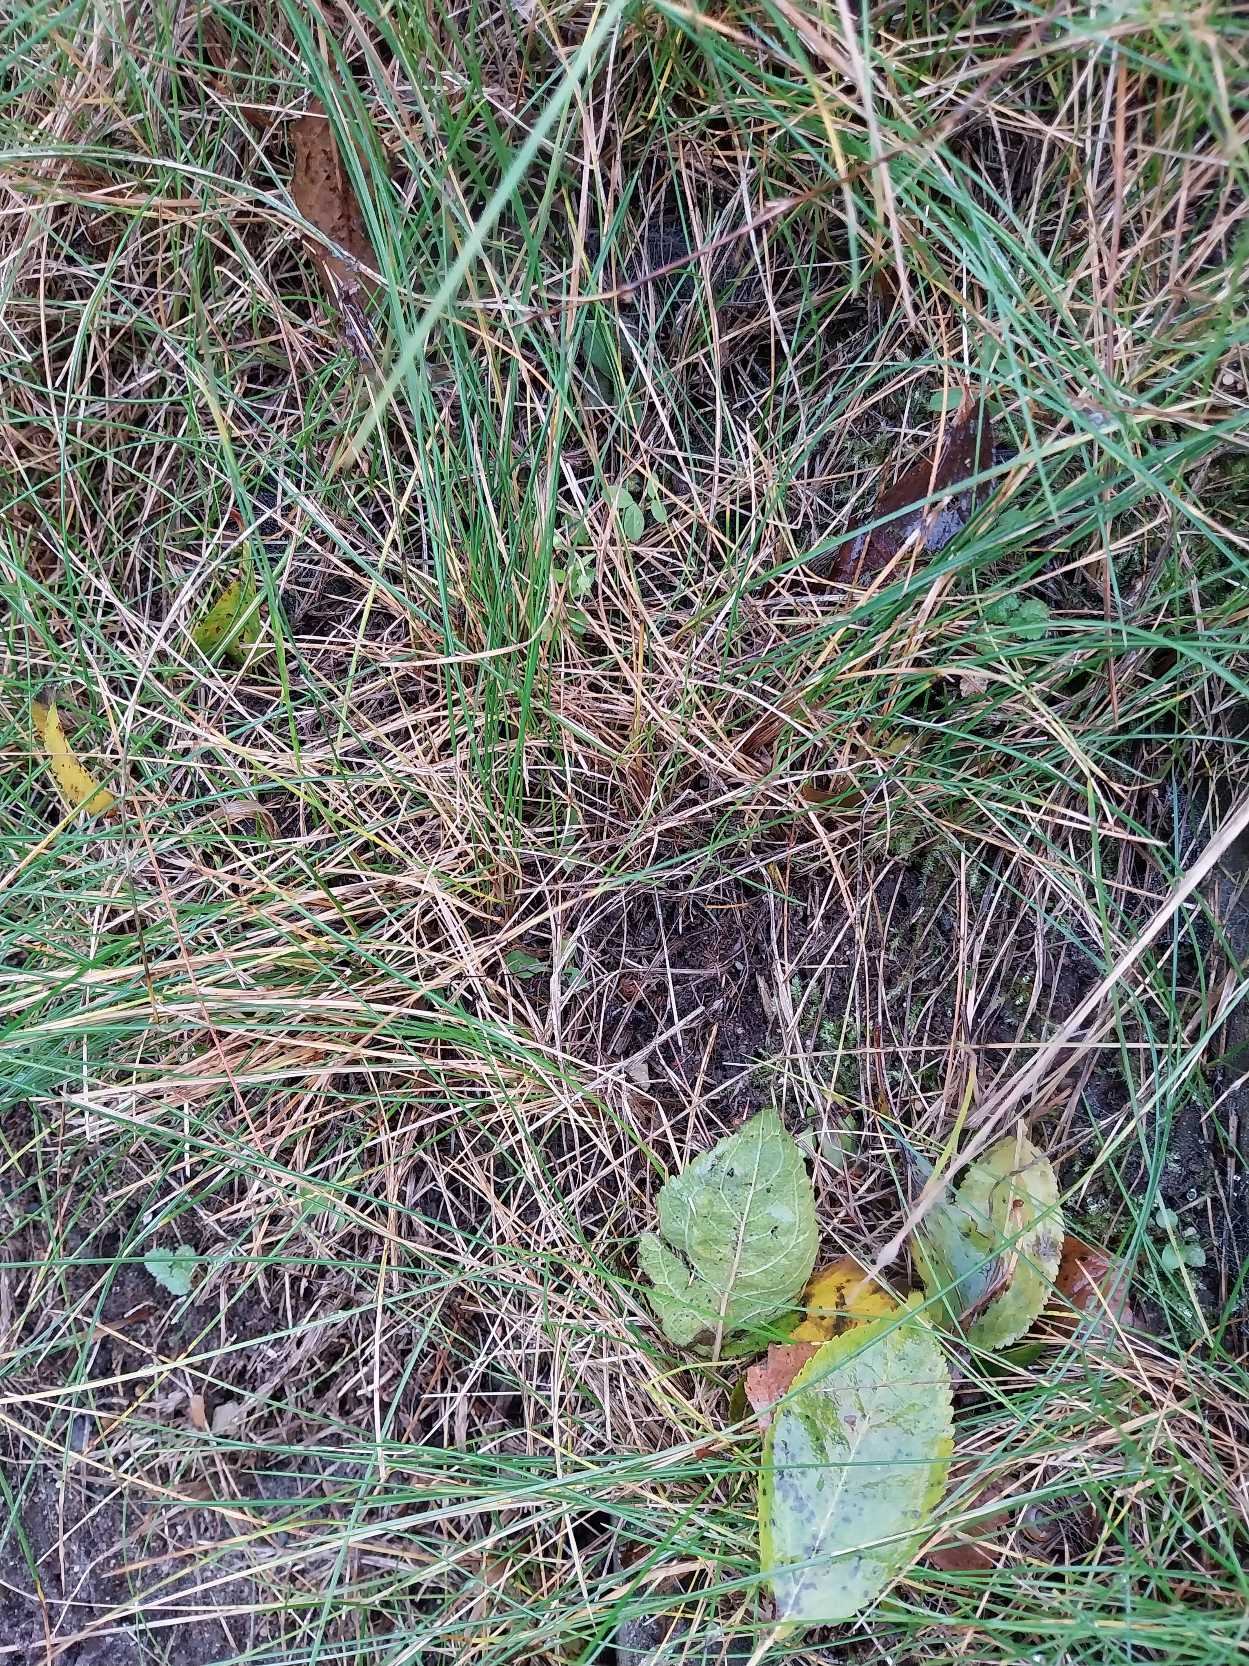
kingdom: Plantae
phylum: Tracheophyta
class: Liliopsida
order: Poales
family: Poaceae
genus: Festuca
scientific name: Festuca rubra
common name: Rød svingel
